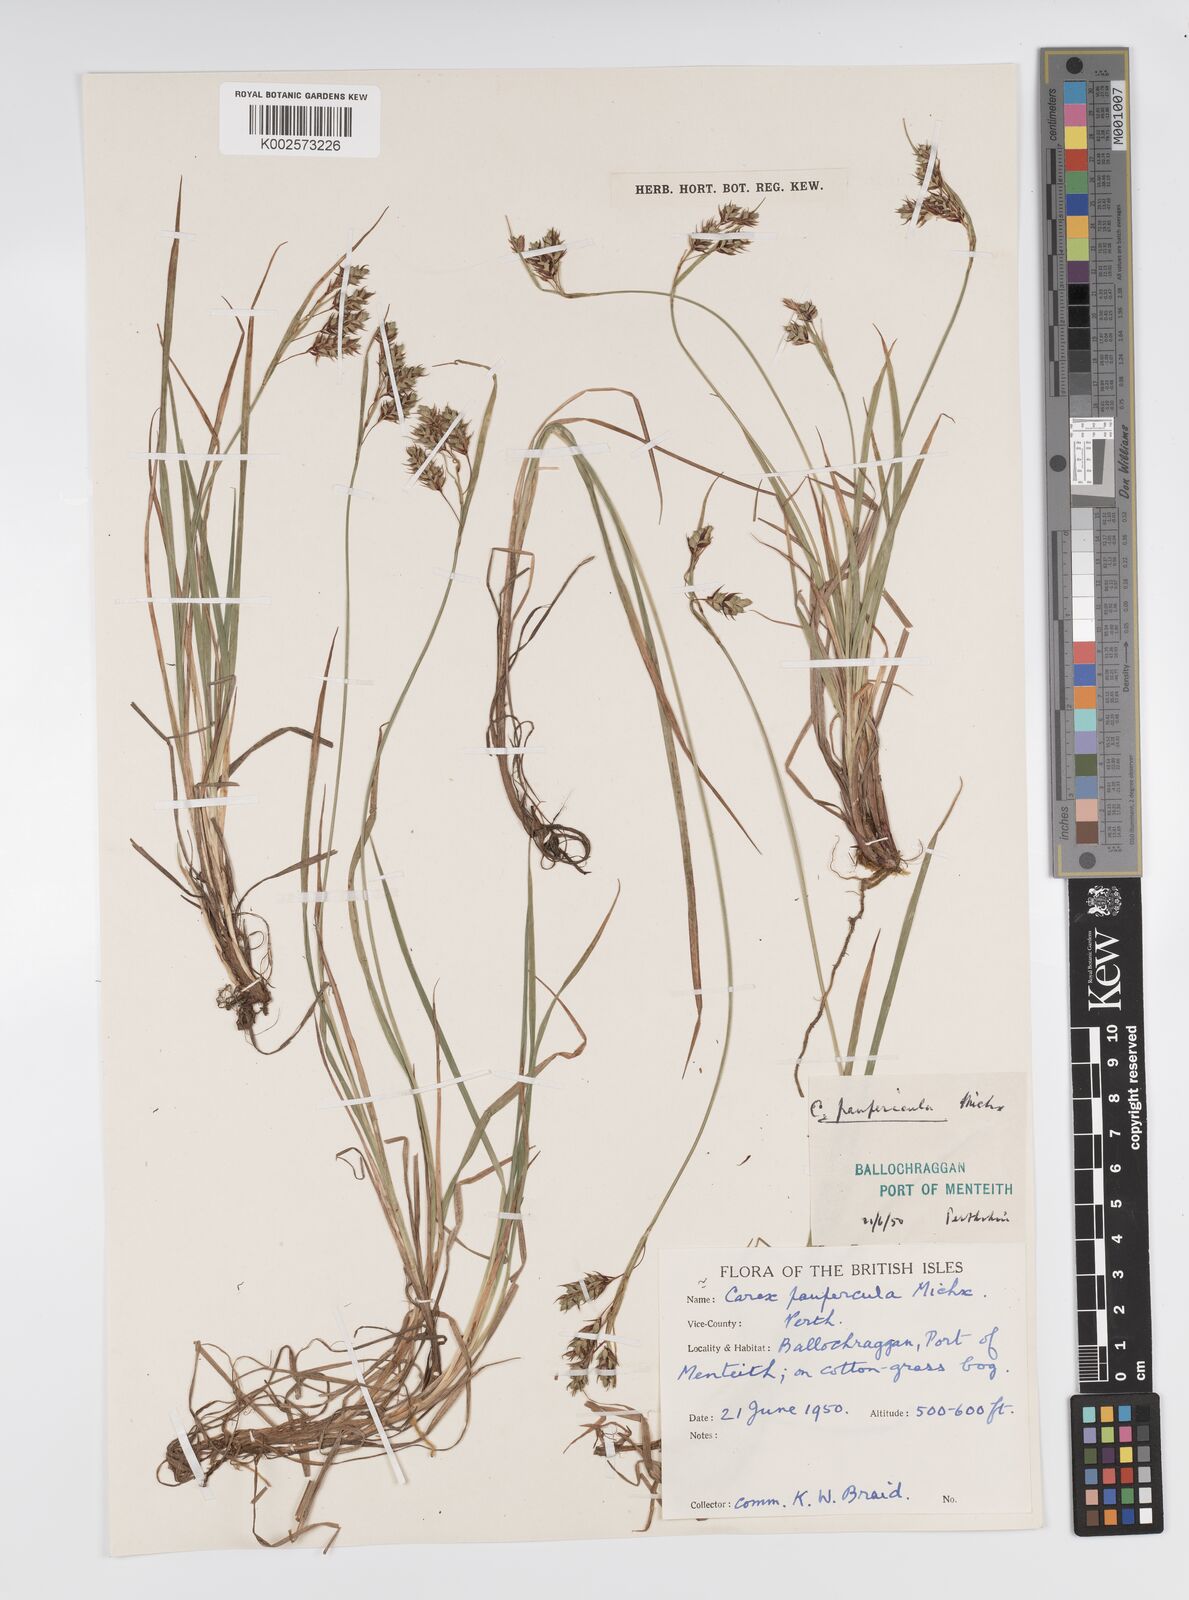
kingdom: Plantae
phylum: Tracheophyta
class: Liliopsida
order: Poales
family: Cyperaceae
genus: Carex
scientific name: Carex magellanica
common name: Bog sedge
